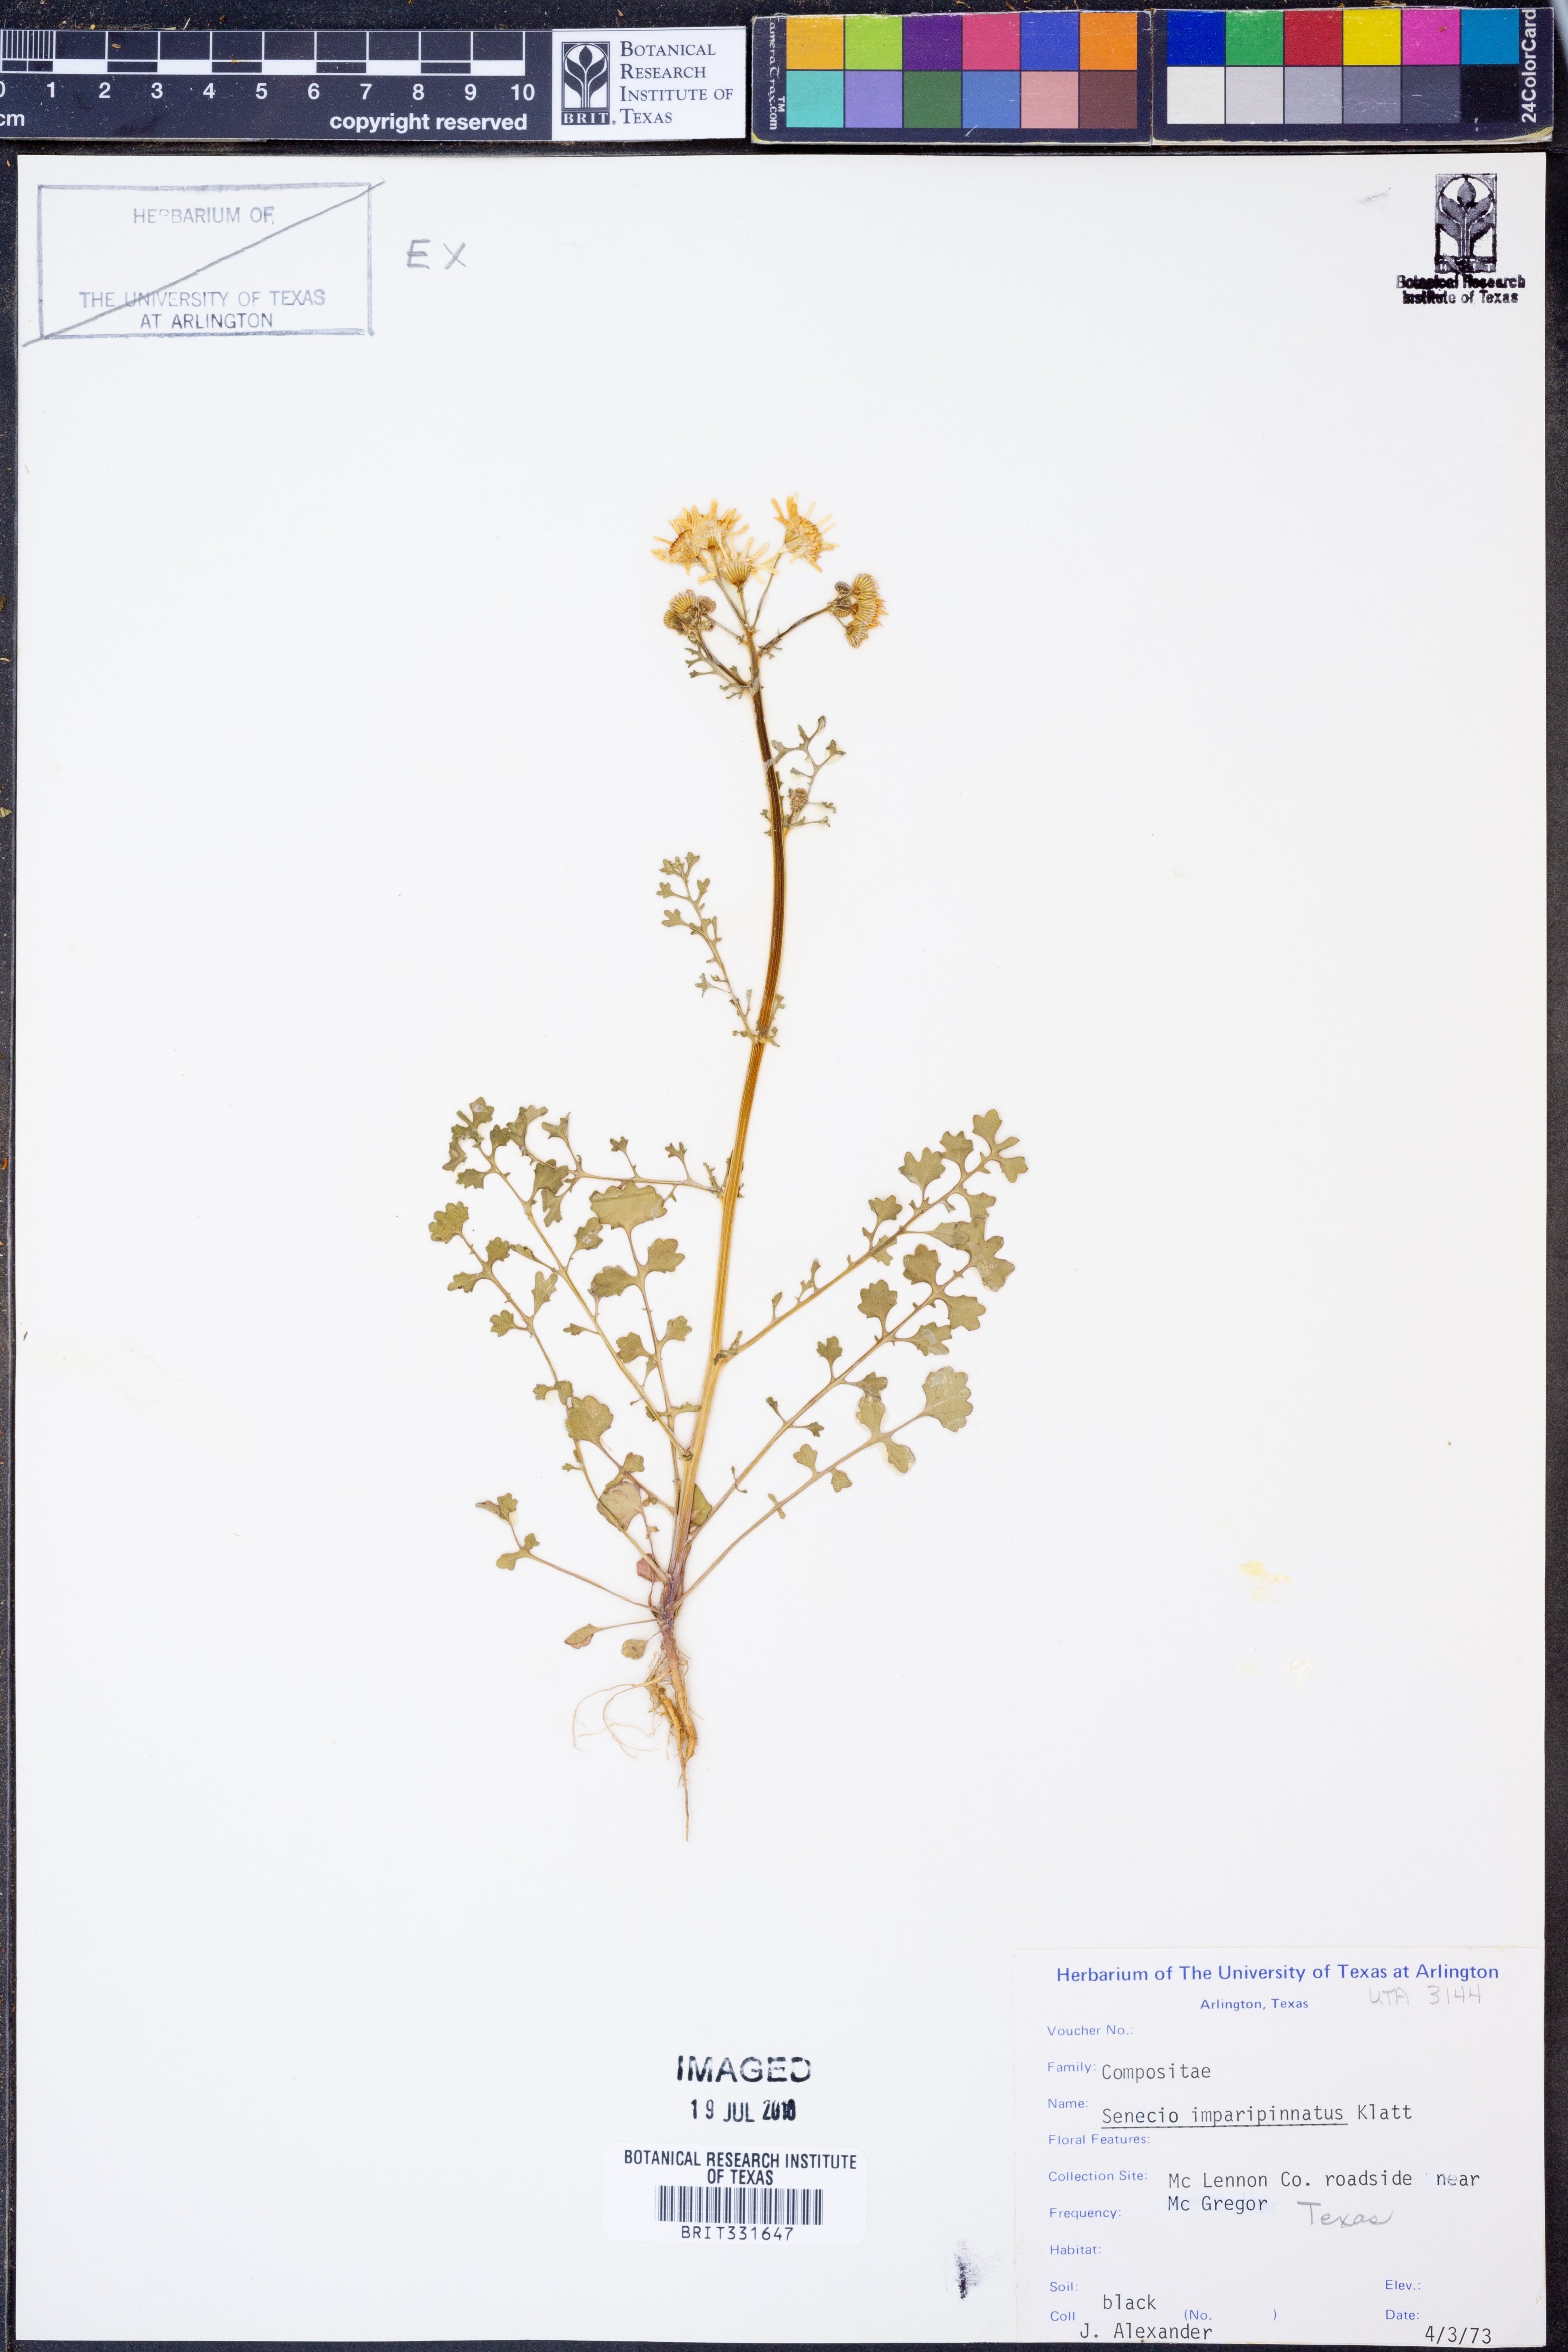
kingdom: Plantae
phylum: Tracheophyta
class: Magnoliopsida
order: Asterales
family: Asteraceae
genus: Packera
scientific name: Packera tampicana
